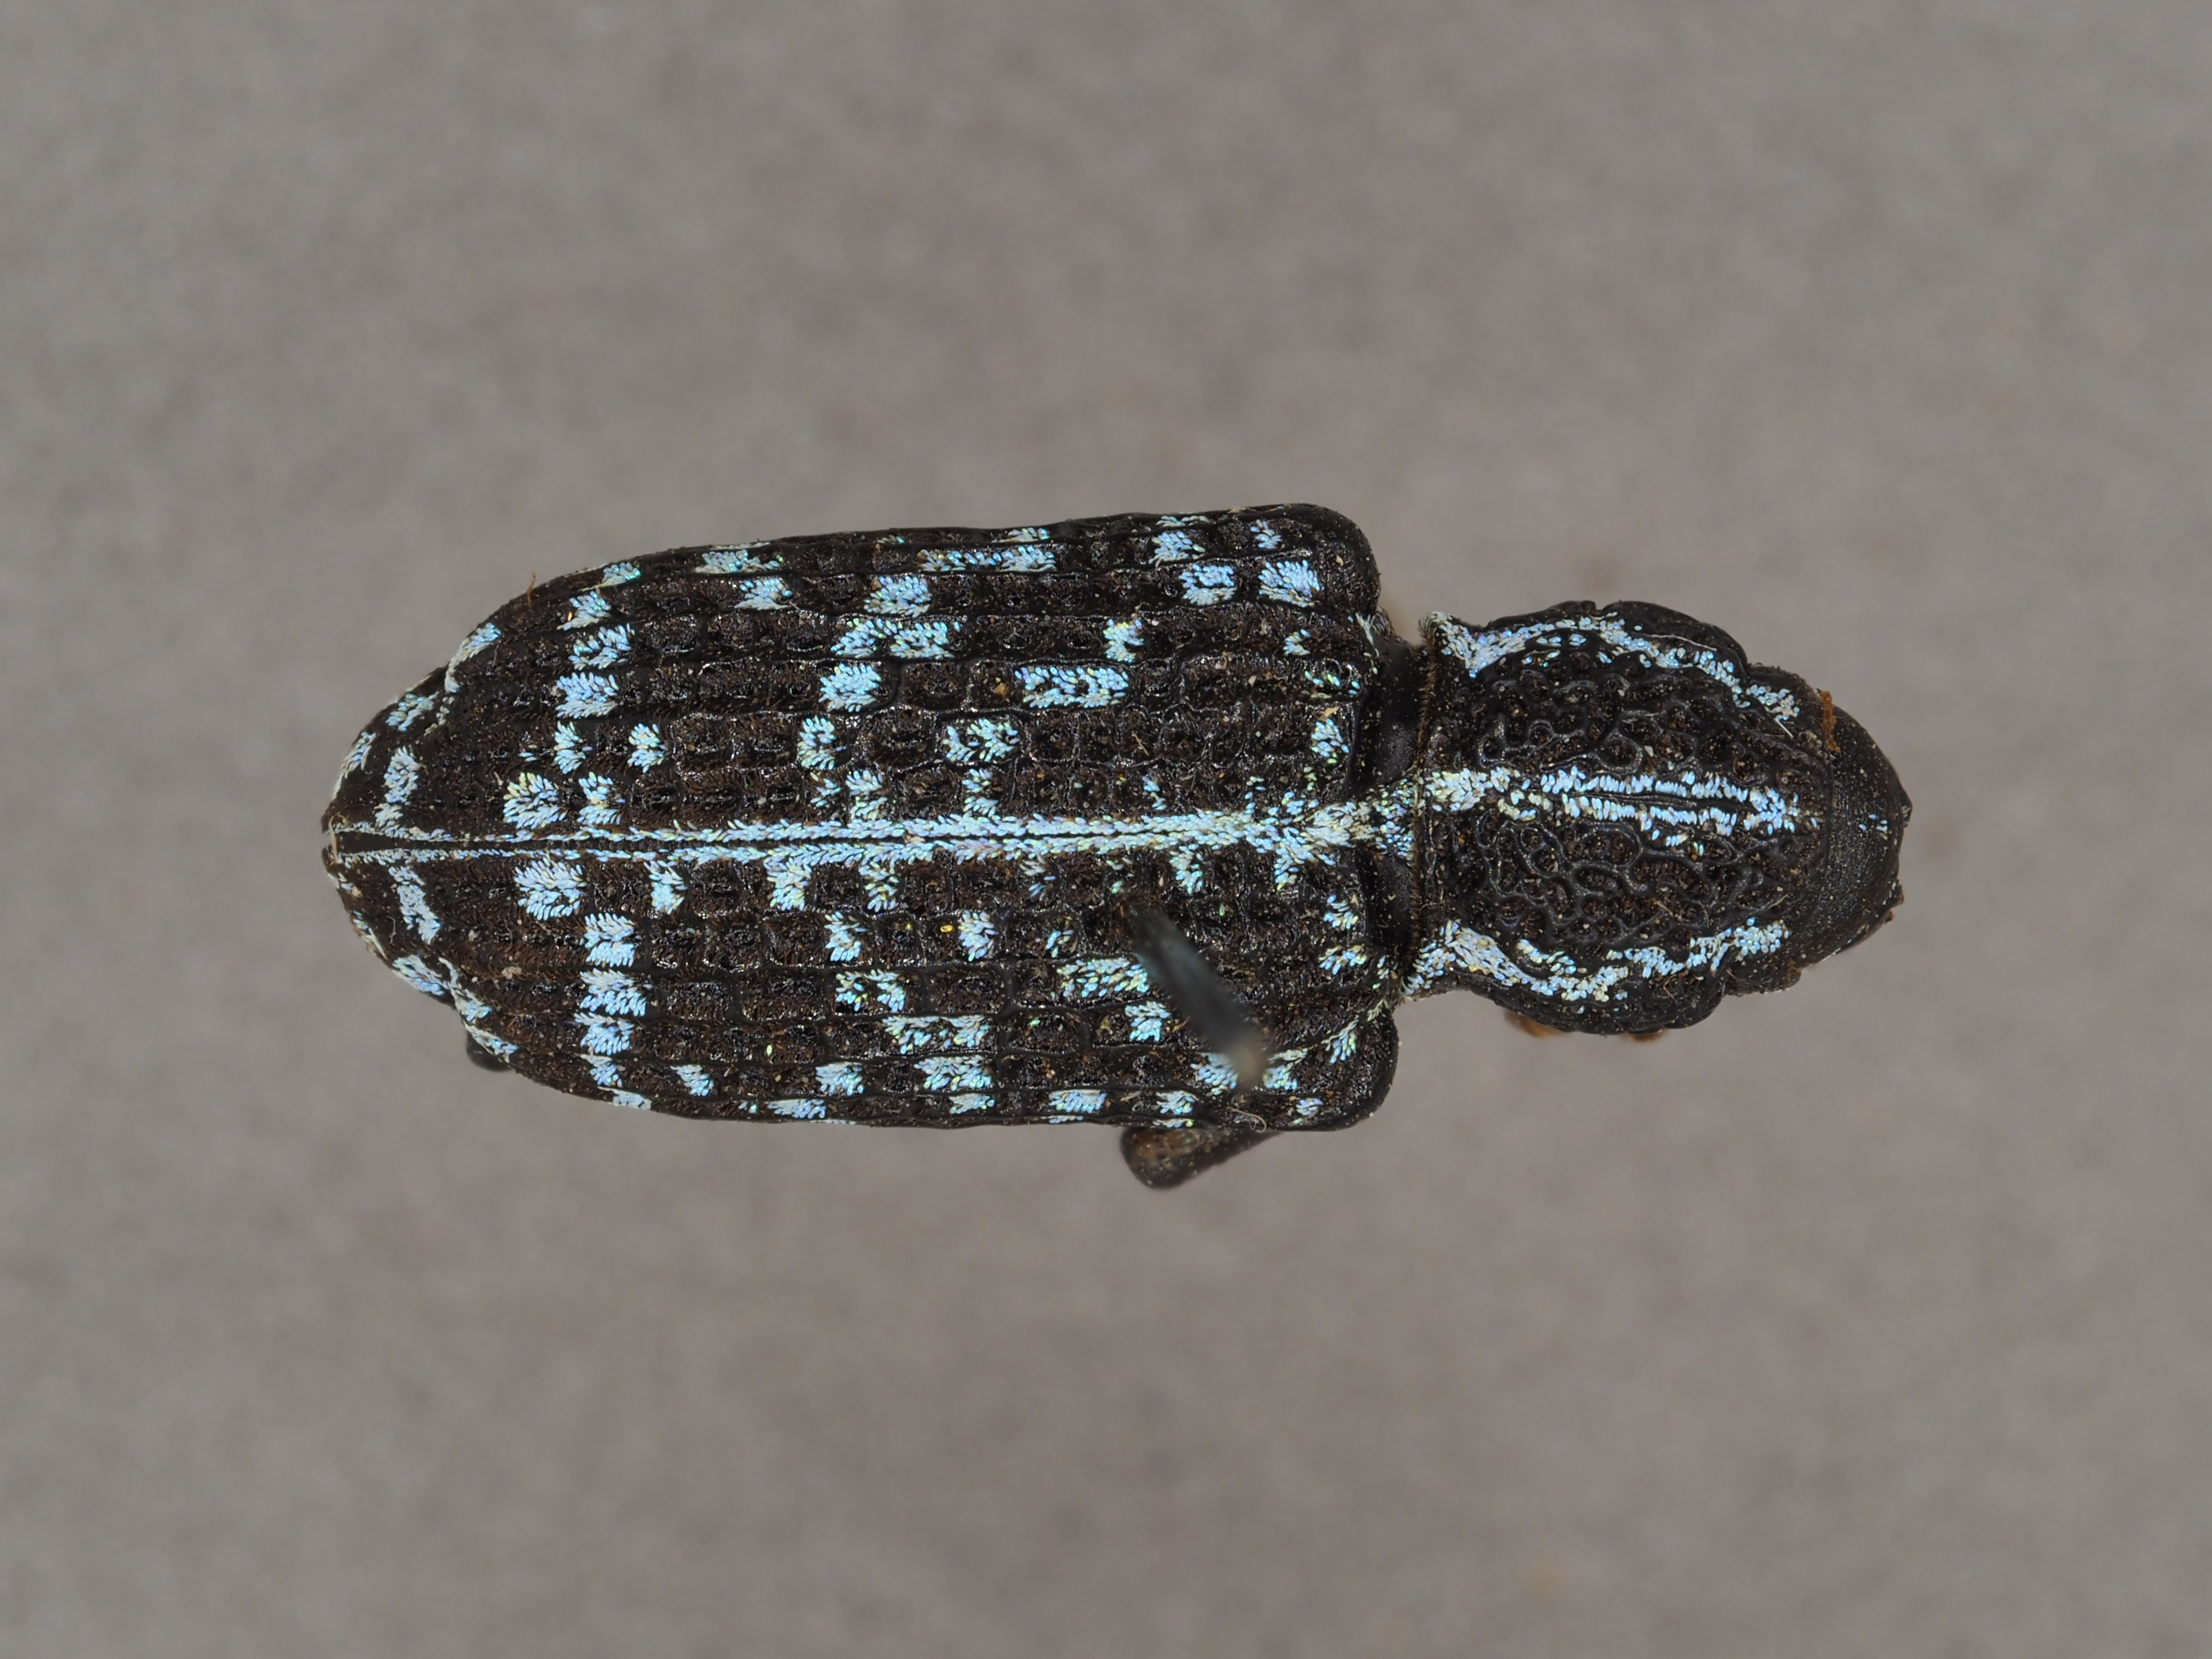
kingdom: Animalia
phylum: Arthropoda
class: Insecta
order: Coleoptera
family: Curculionidae
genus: Chrysolopus
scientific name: Chrysolopus spectabilis
